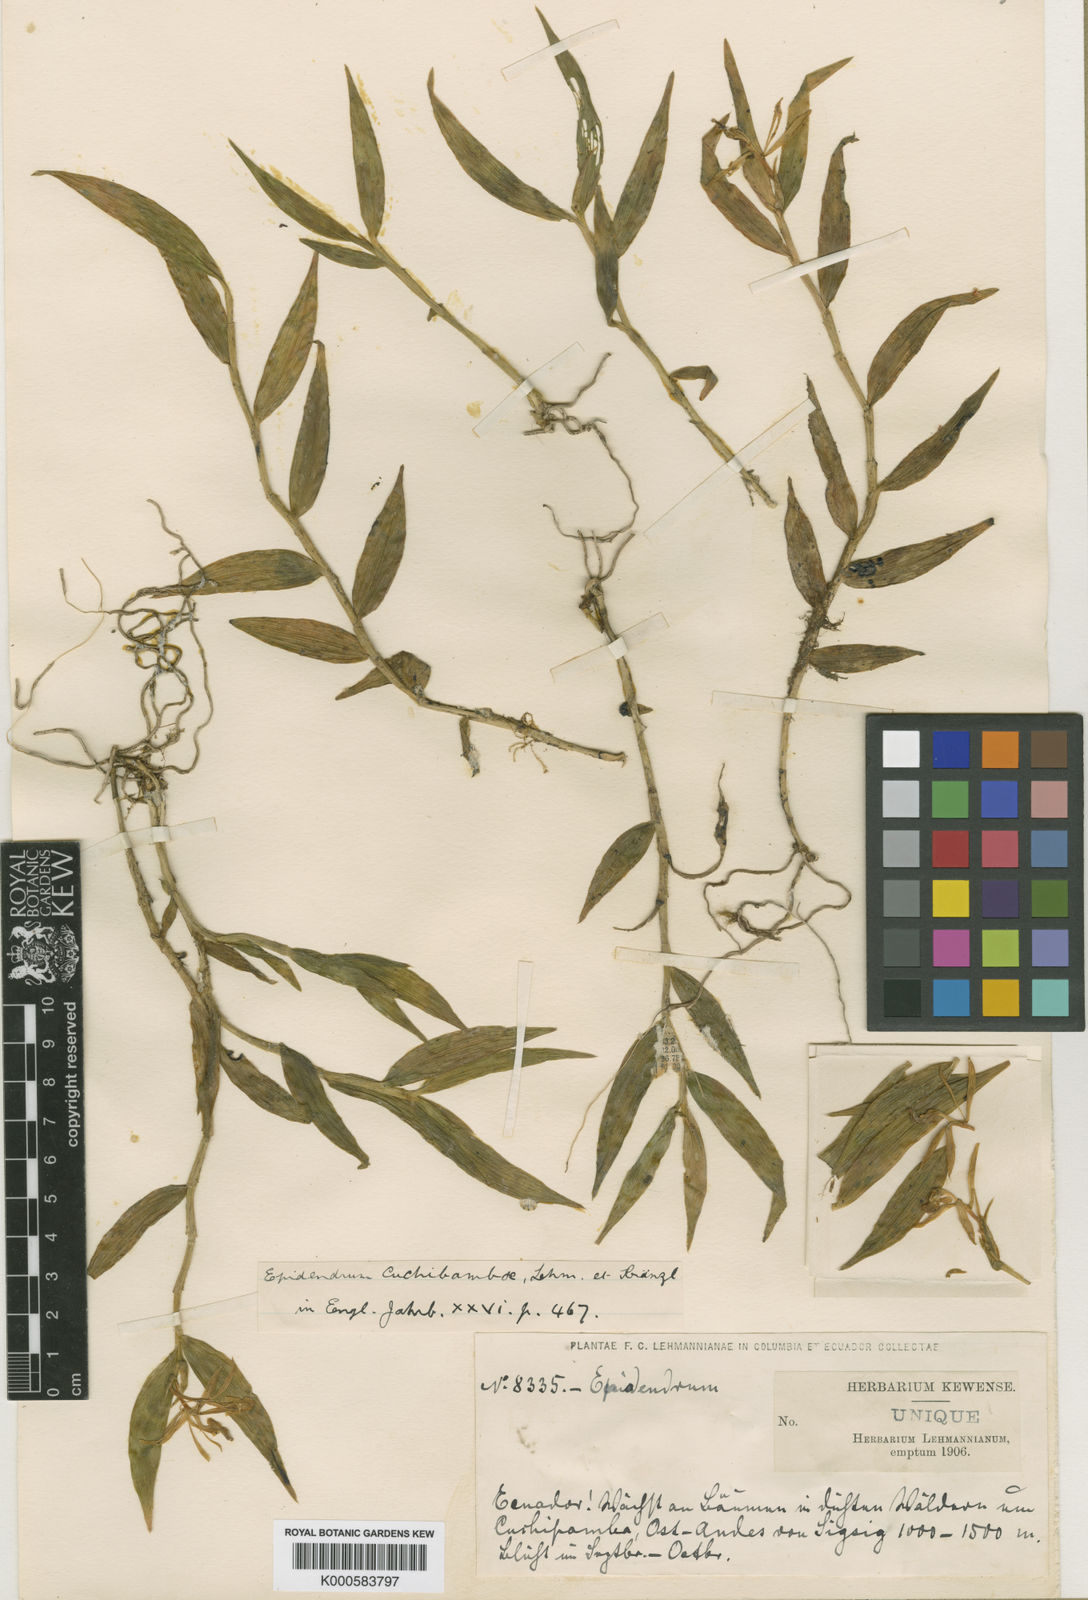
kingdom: Plantae
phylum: Tracheophyta
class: Liliopsida
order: Asparagales
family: Orchidaceae
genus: Epidendrum
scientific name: Epidendrum cuchibambae
